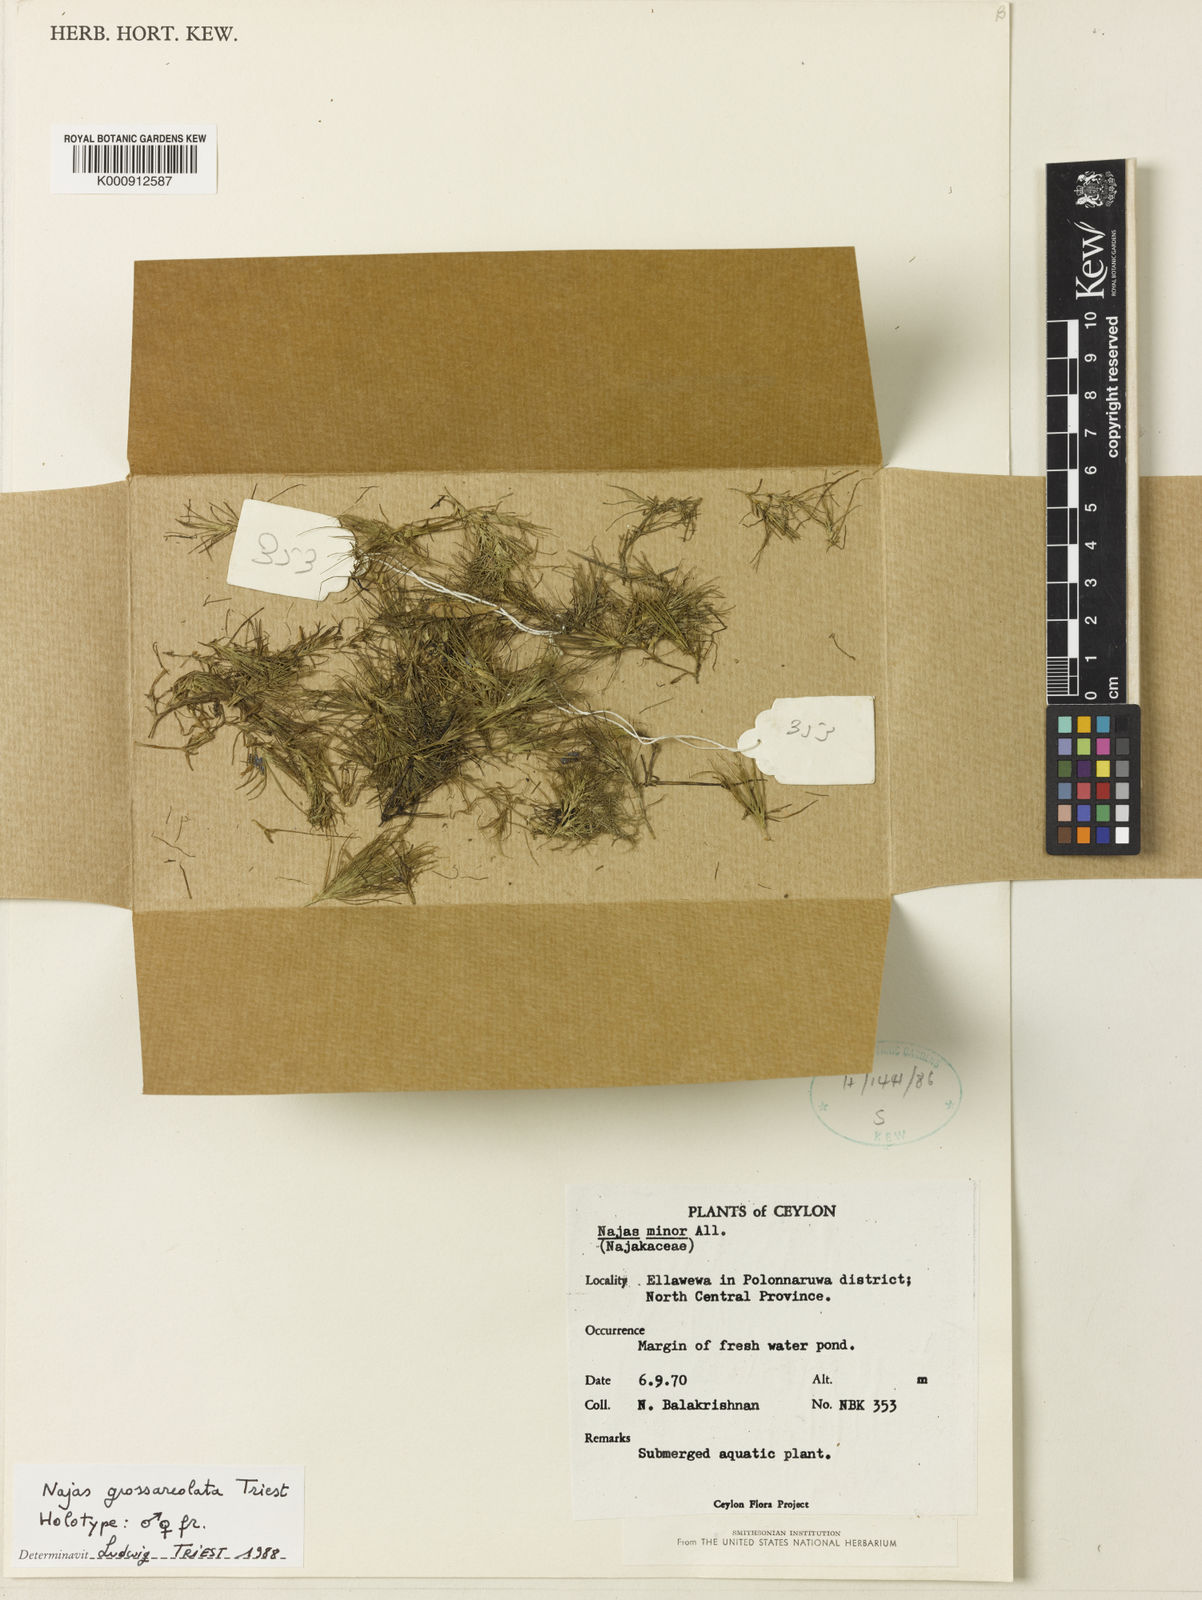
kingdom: Plantae
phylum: Tracheophyta
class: Liliopsida
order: Alismatales
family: Hydrocharitaceae
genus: Najas
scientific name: Najas grossareolata
